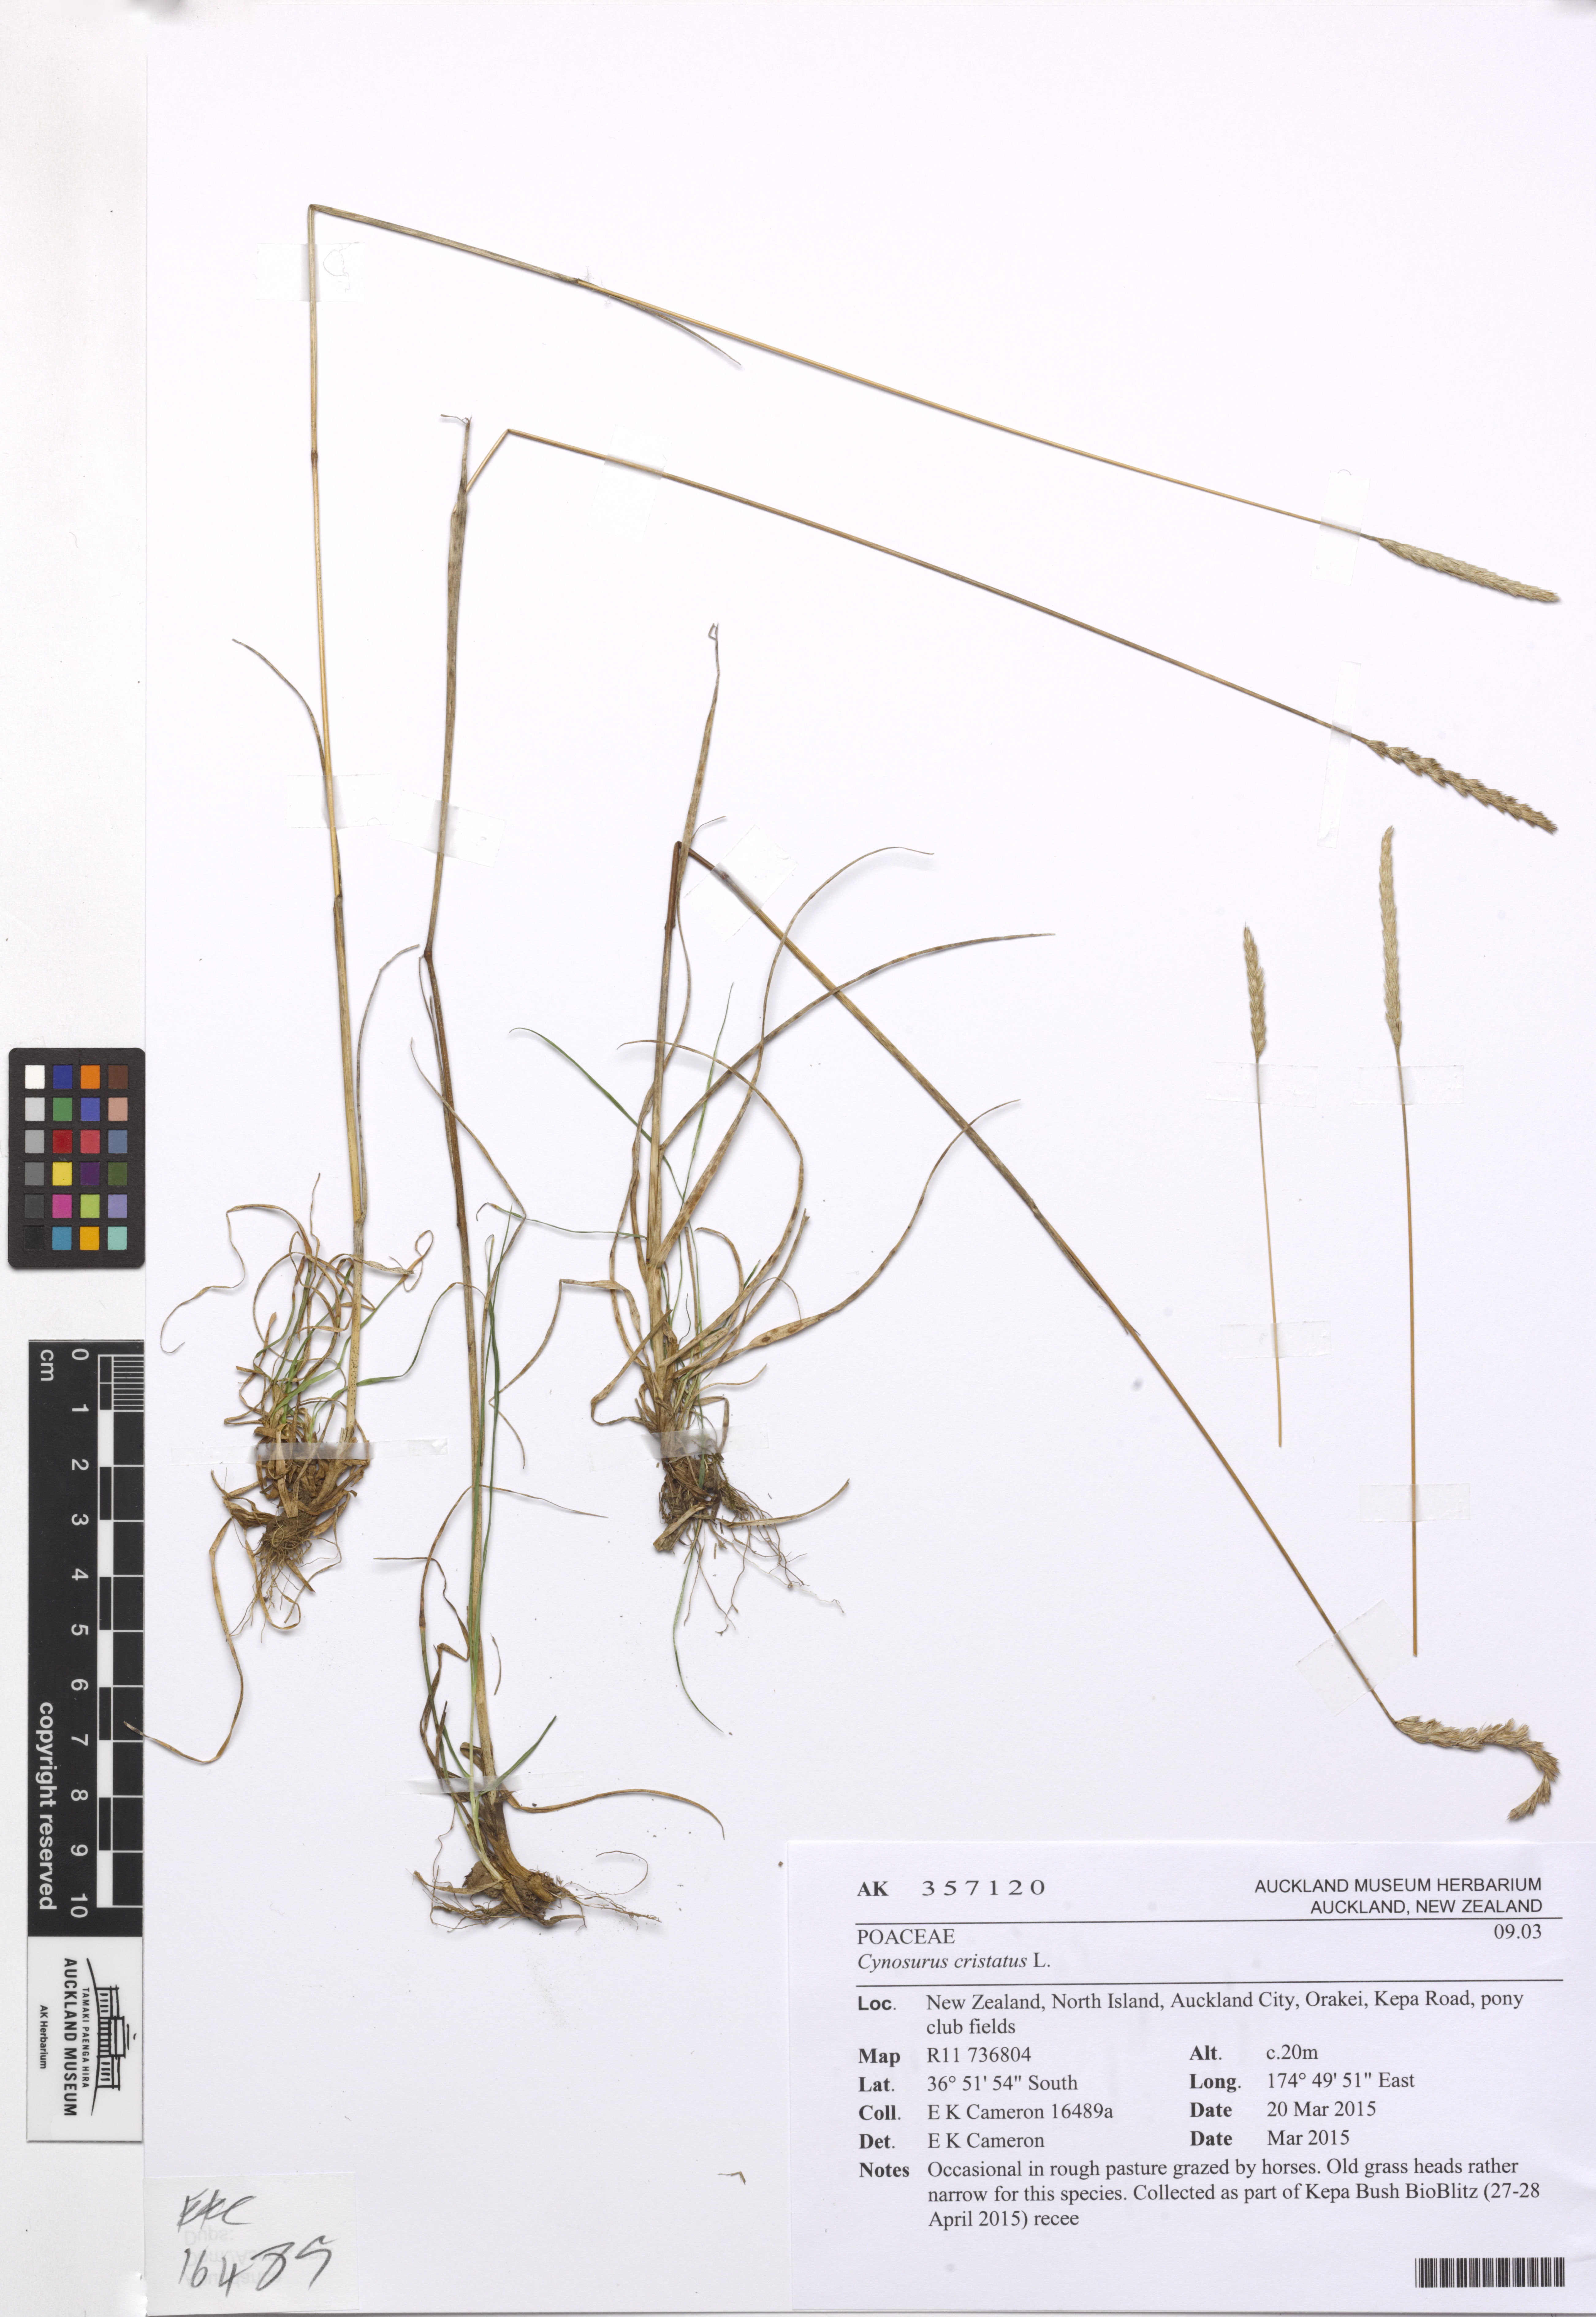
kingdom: Plantae
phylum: Tracheophyta
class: Liliopsida
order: Poales
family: Poaceae
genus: Cynosurus
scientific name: Cynosurus cristatus
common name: Crested dog's-tail
